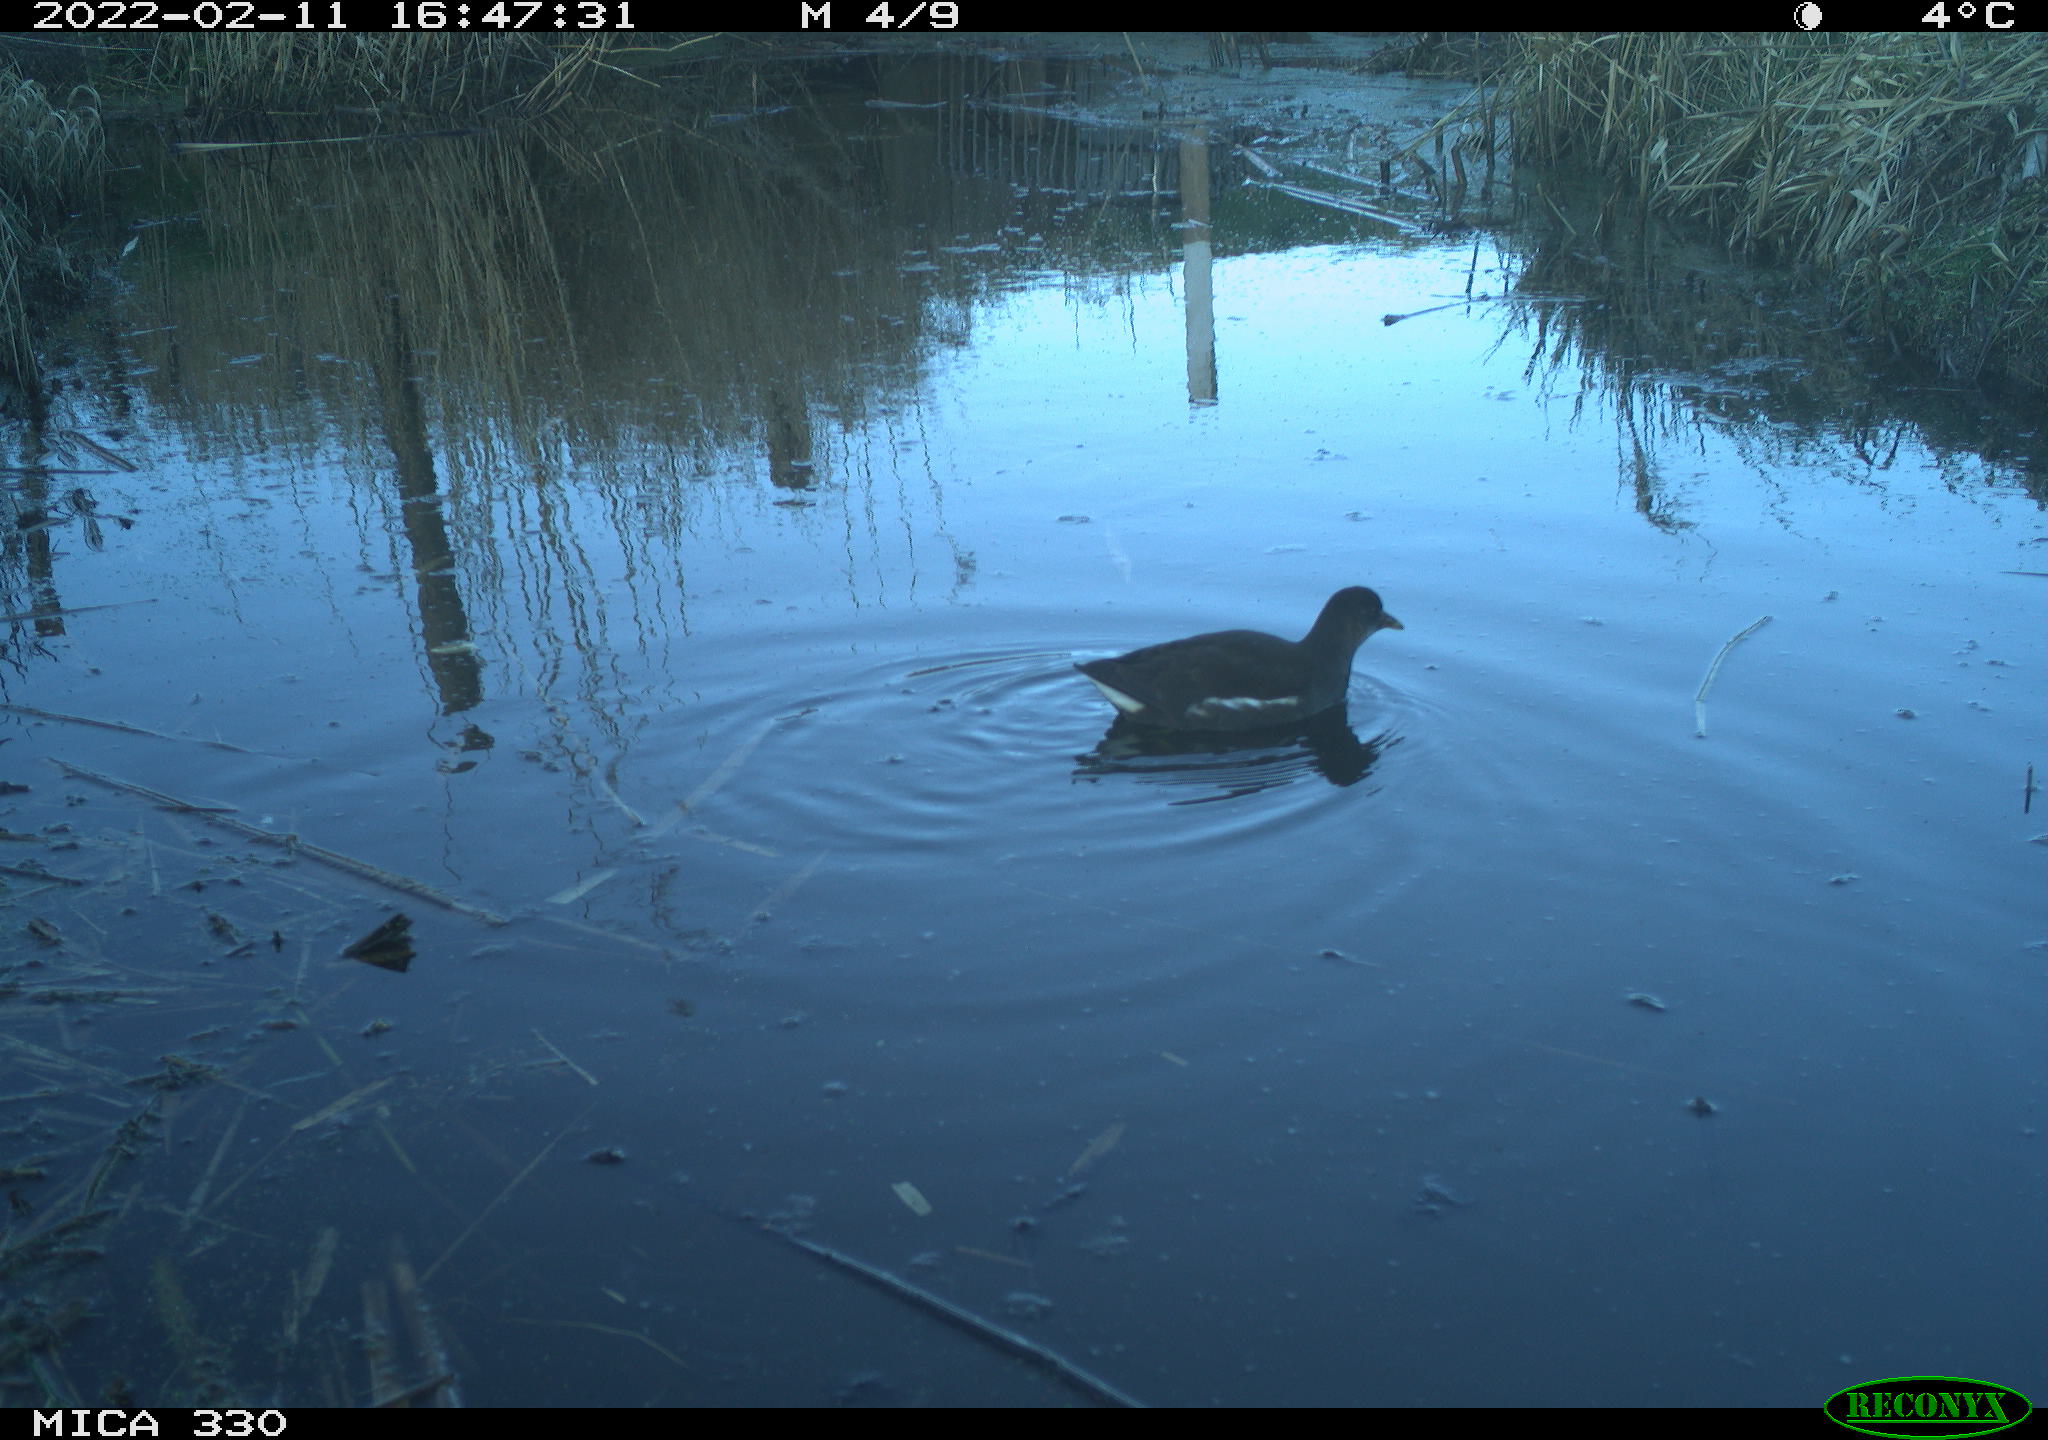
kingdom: Animalia
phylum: Chordata
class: Aves
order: Gruiformes
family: Rallidae
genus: Gallinula
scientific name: Gallinula chloropus
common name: Common moorhen
